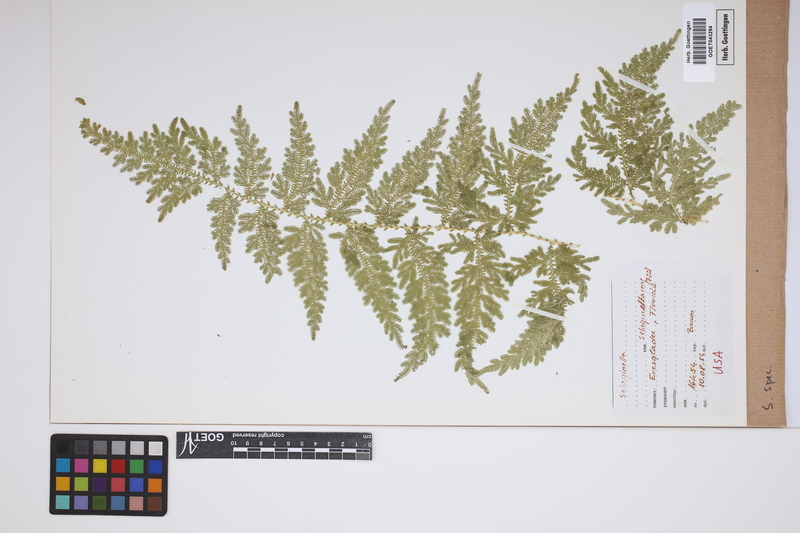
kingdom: Plantae
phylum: Tracheophyta
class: Lycopodiopsida
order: Selaginellales
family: Selaginellaceae
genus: Selaginella
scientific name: Selaginella
